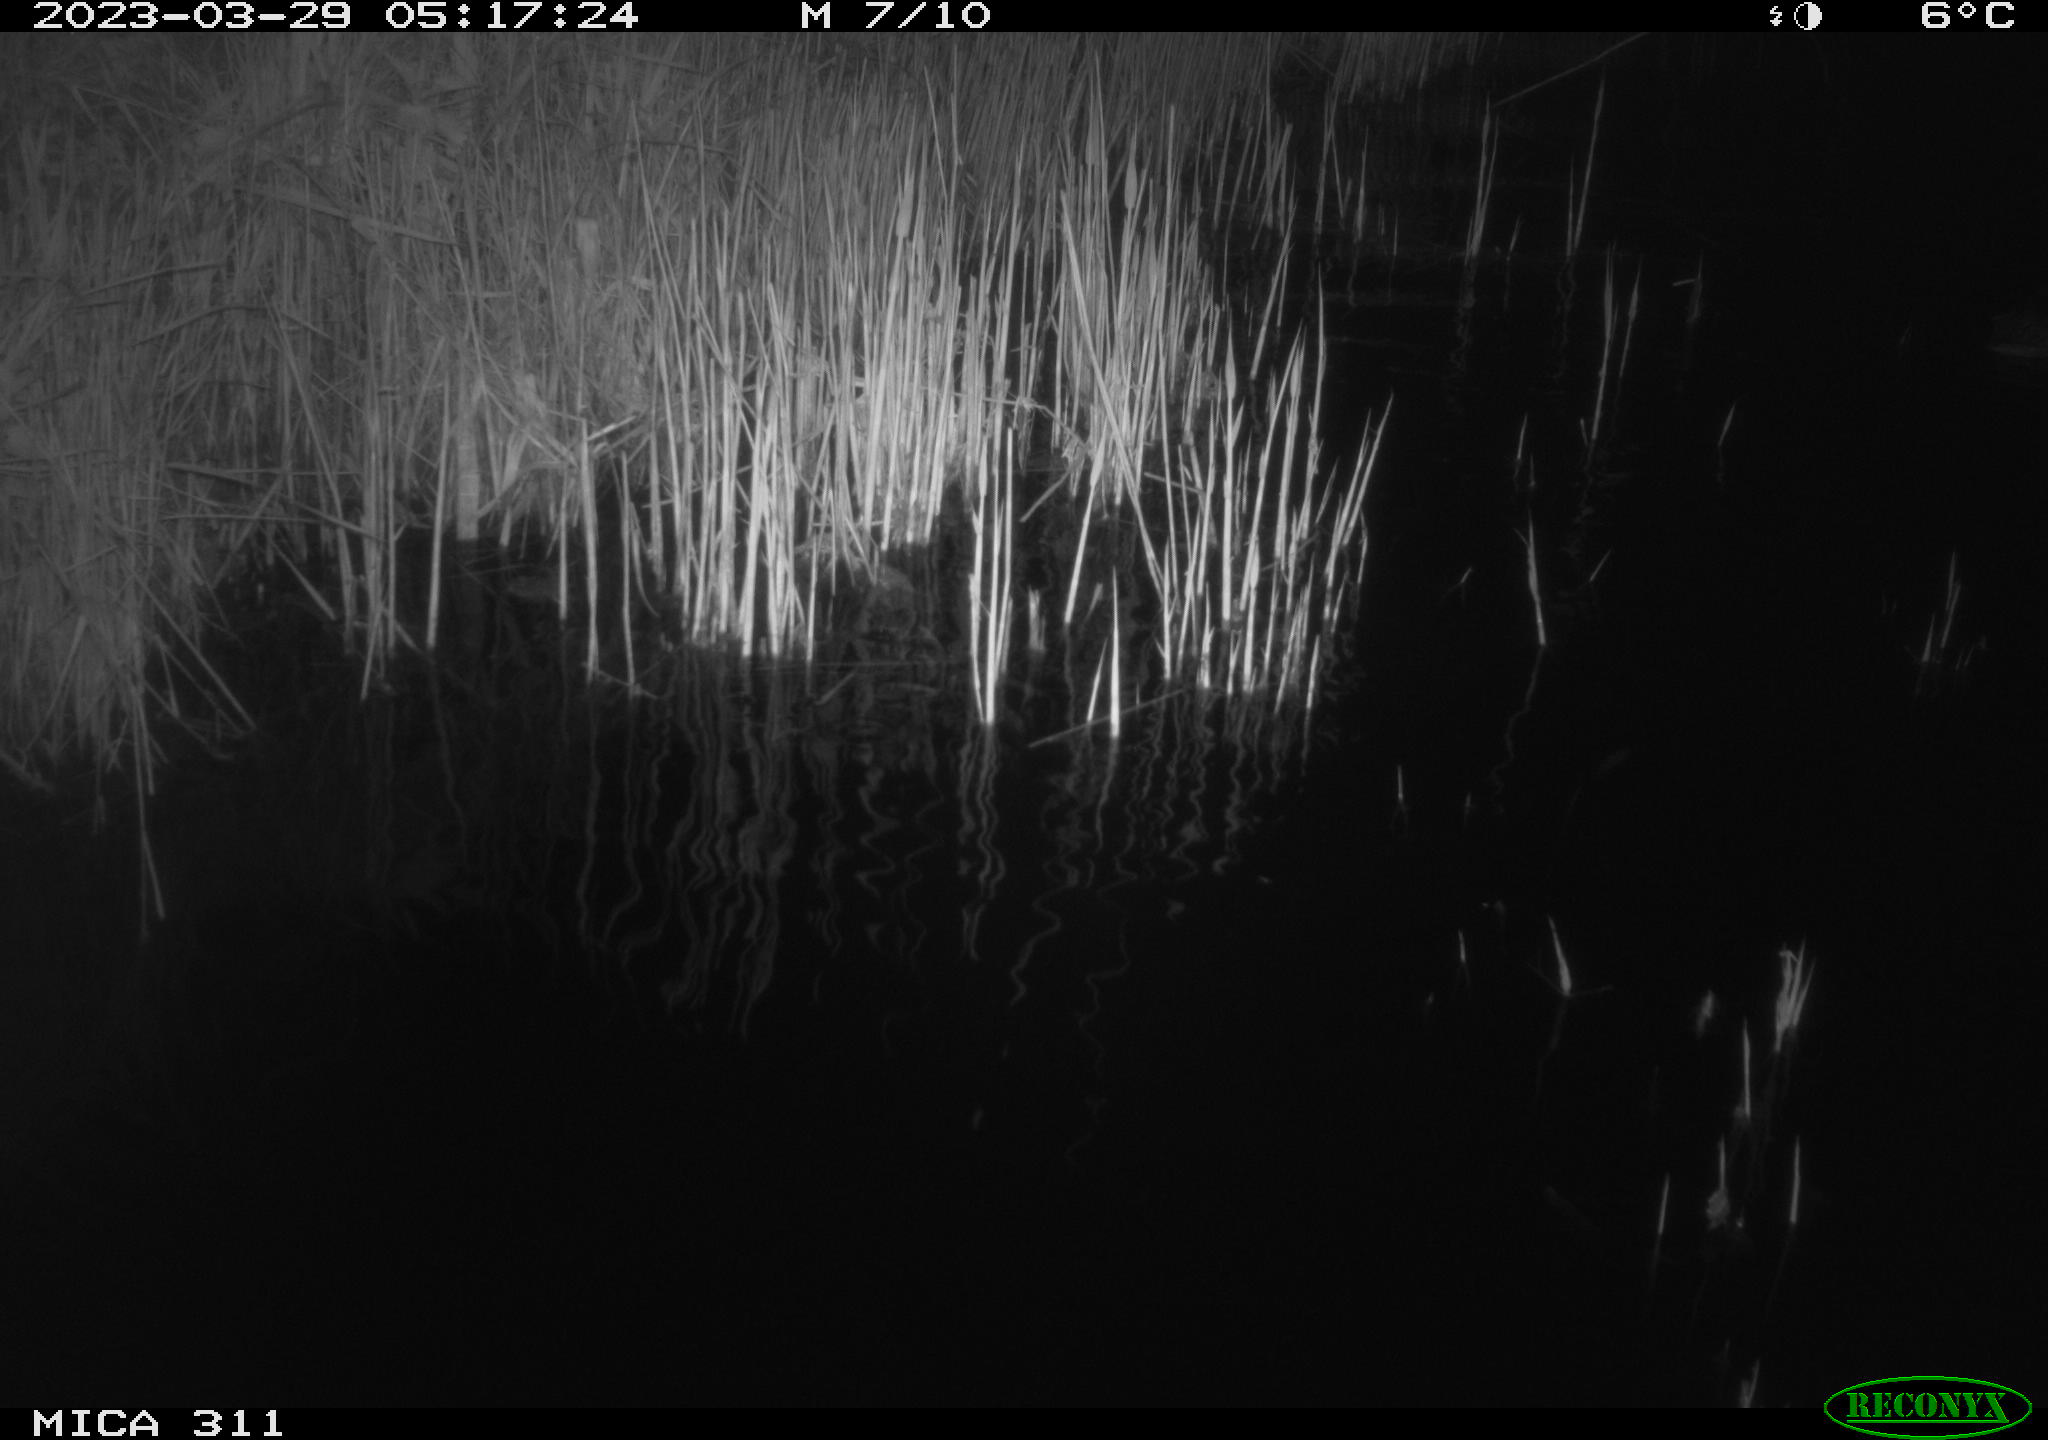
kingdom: Animalia
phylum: Chordata
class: Aves
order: Anseriformes
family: Anatidae
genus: Anas
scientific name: Anas
